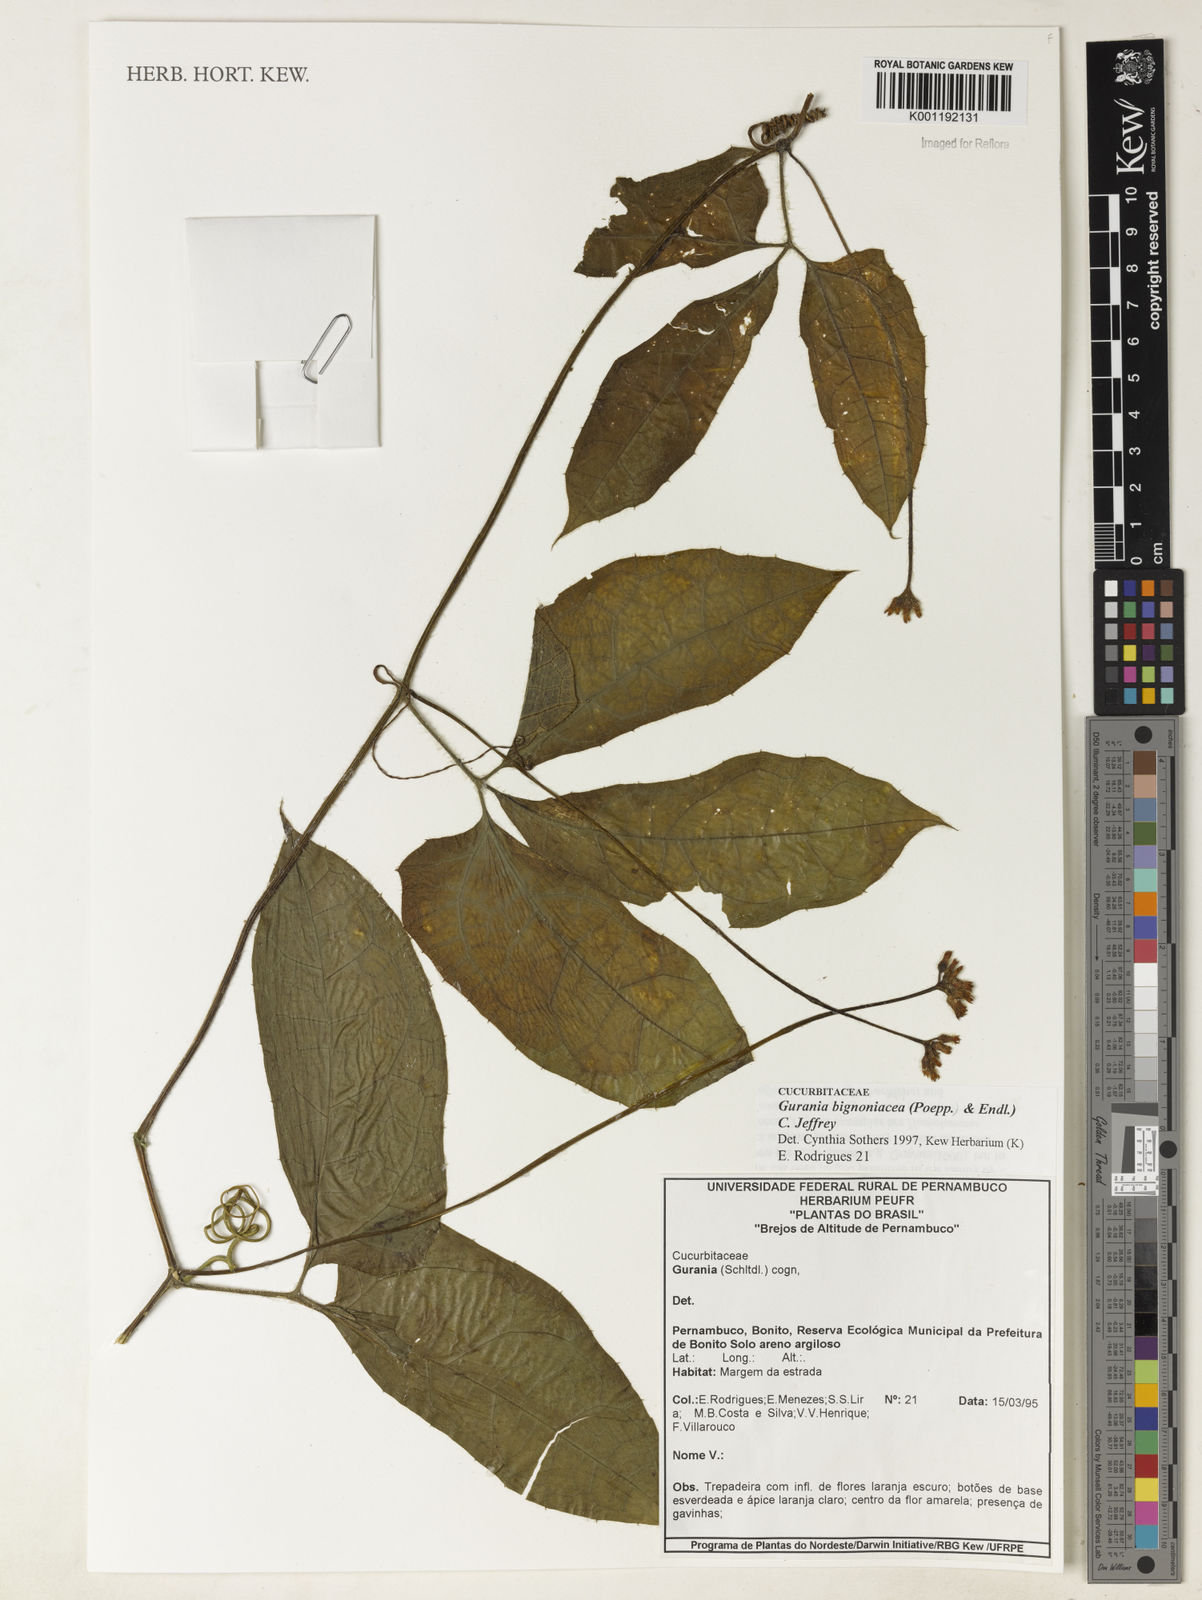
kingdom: Plantae
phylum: Tracheophyta
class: Magnoliopsida
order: Cucurbitales
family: Cucurbitaceae
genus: Gurania
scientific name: Gurania bignoniacea
